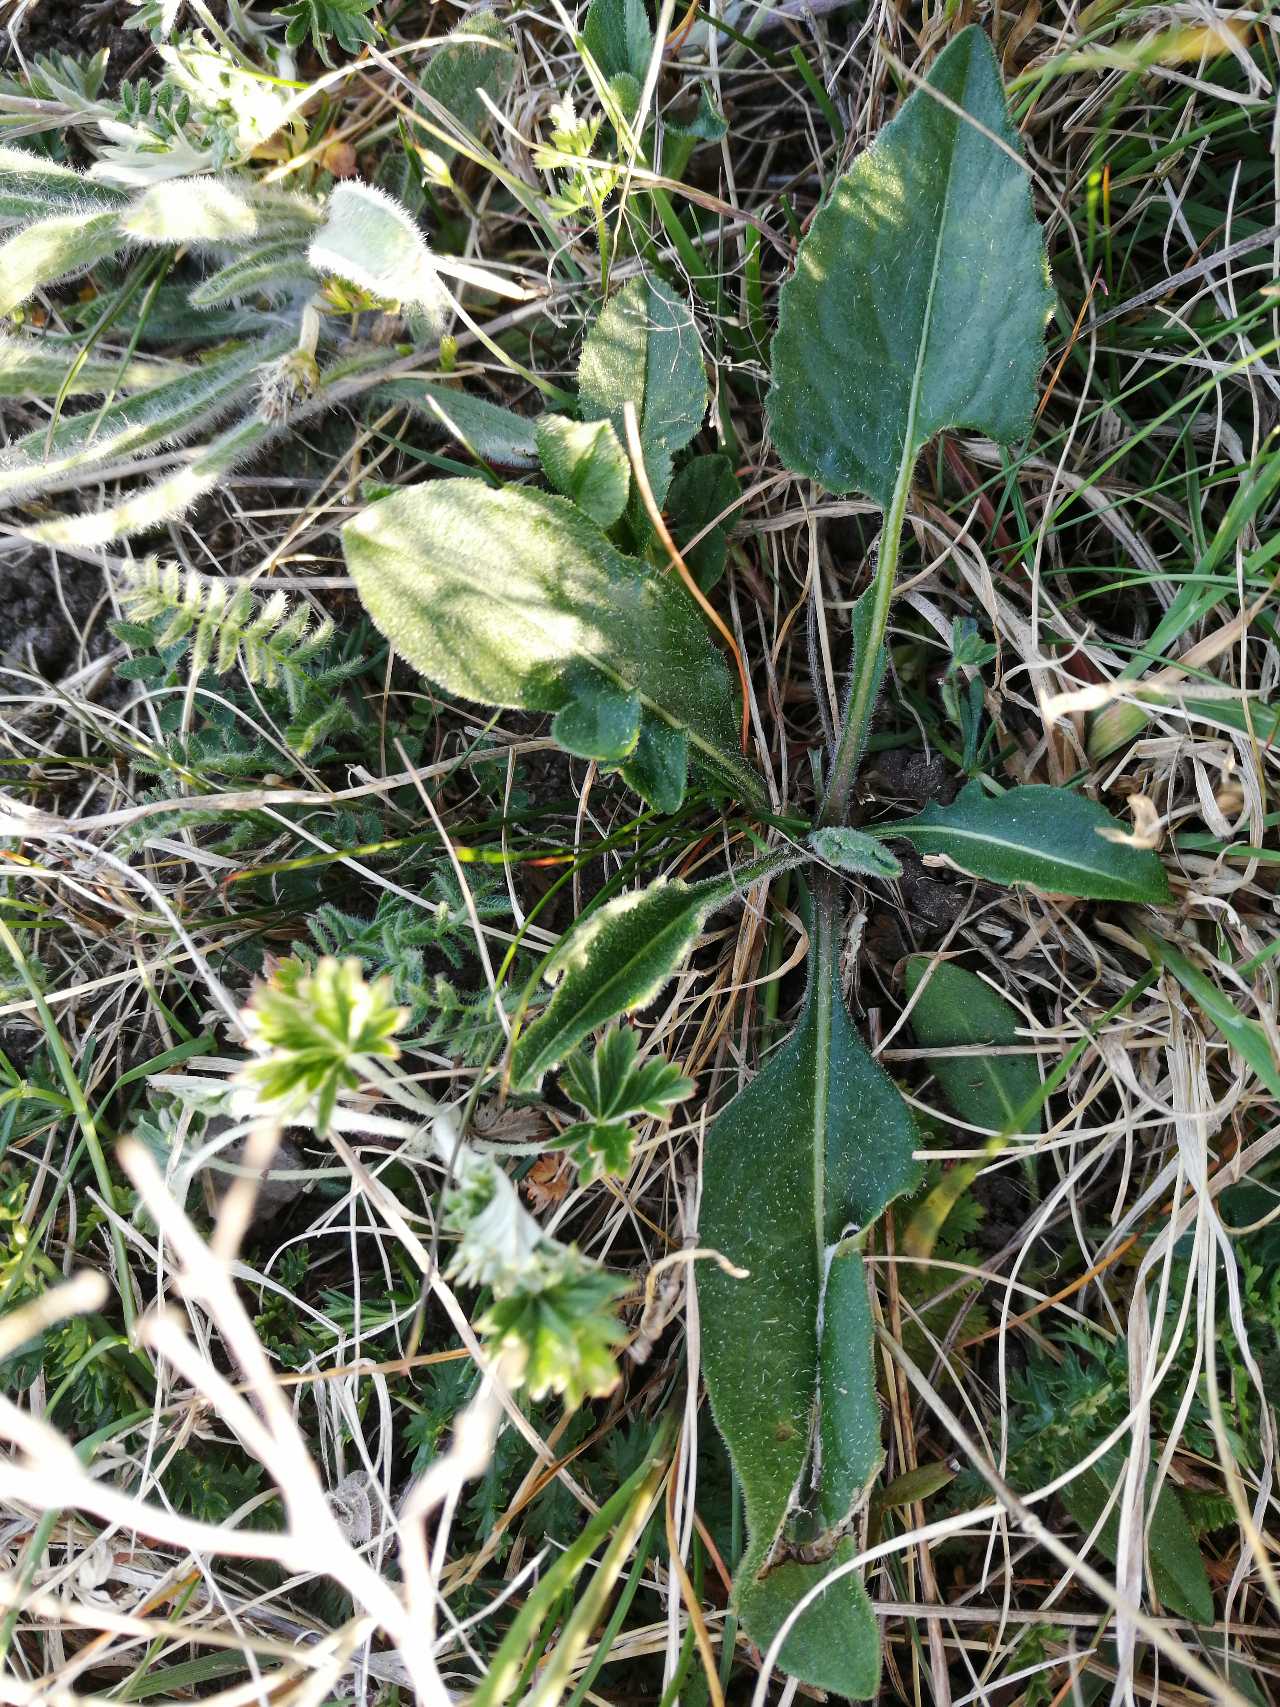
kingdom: Plantae
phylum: Tracheophyta
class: Magnoliopsida
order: Asterales
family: Asteraceae
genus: Centaurea
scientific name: Centaurea scabiosa
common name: Stor knopurt
